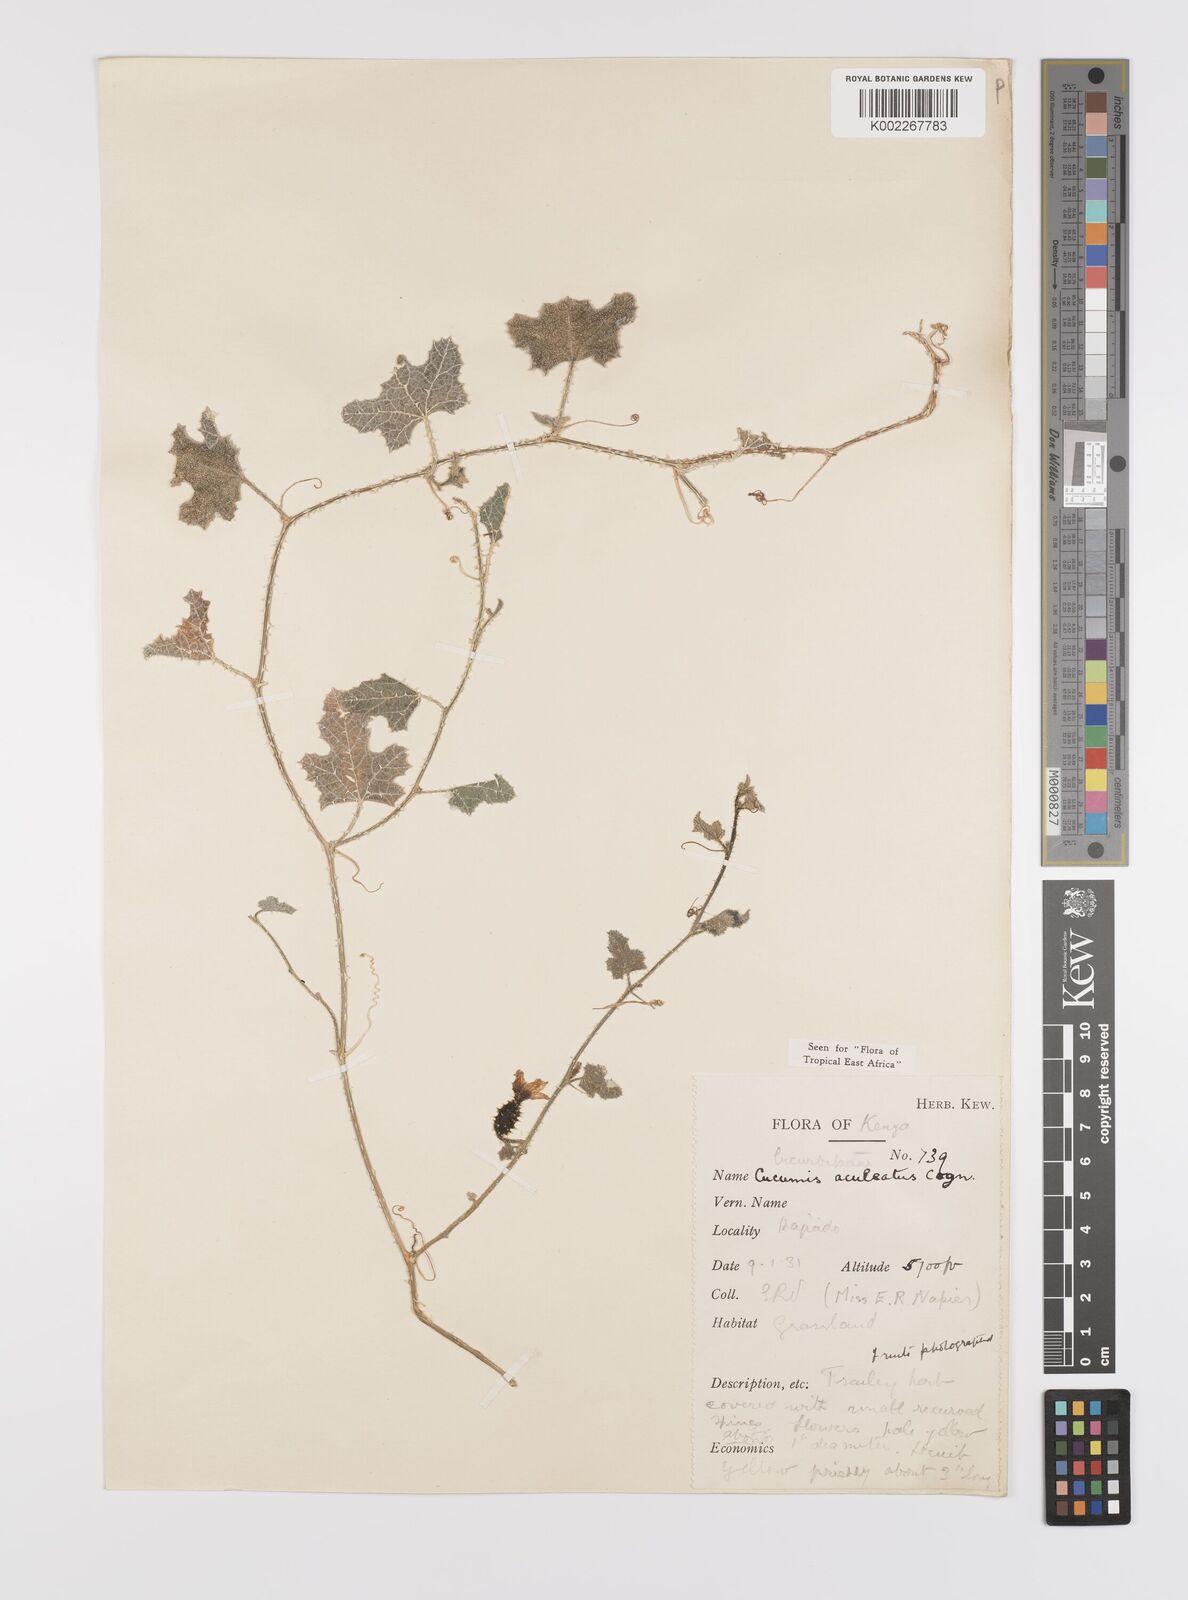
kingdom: Plantae
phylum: Tracheophyta
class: Magnoliopsida
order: Cucurbitales
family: Cucurbitaceae
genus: Cucumis
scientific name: Cucumis aculeatus
